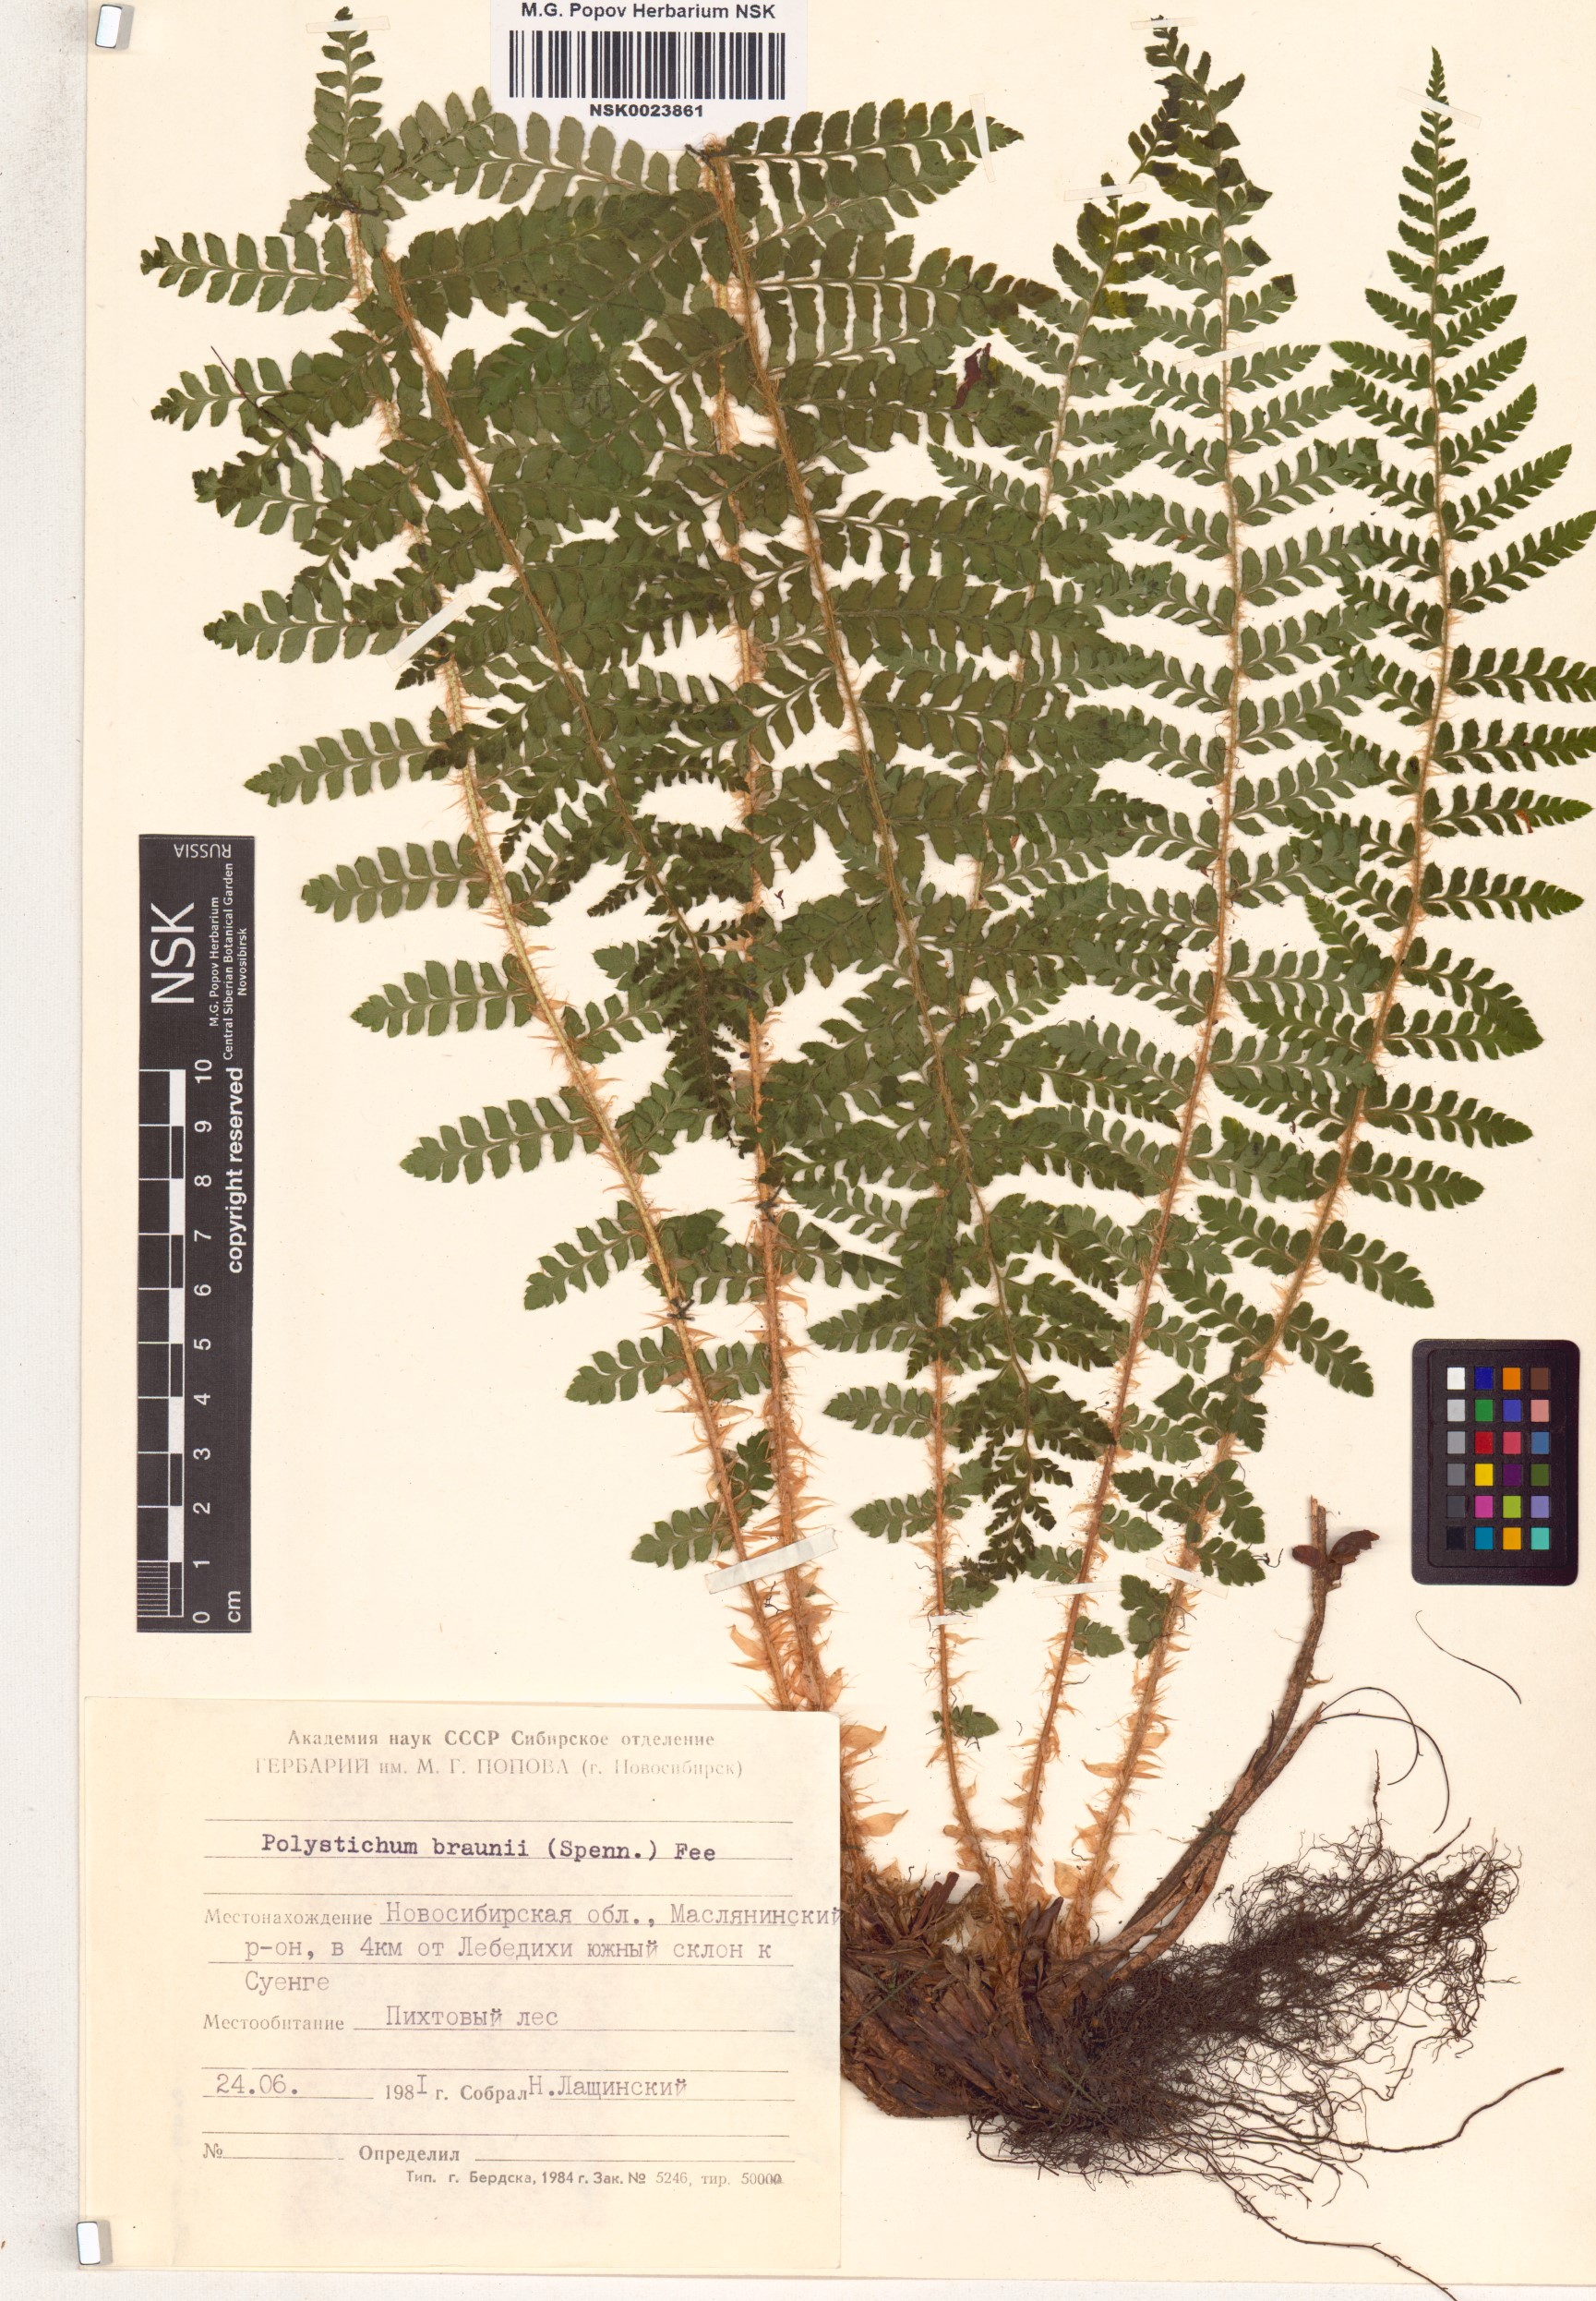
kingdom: Plantae
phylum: Tracheophyta
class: Polypodiopsida
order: Polypodiales
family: Dryopteridaceae
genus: Polystichum
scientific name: Polystichum braunii
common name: Braun's holly fern
